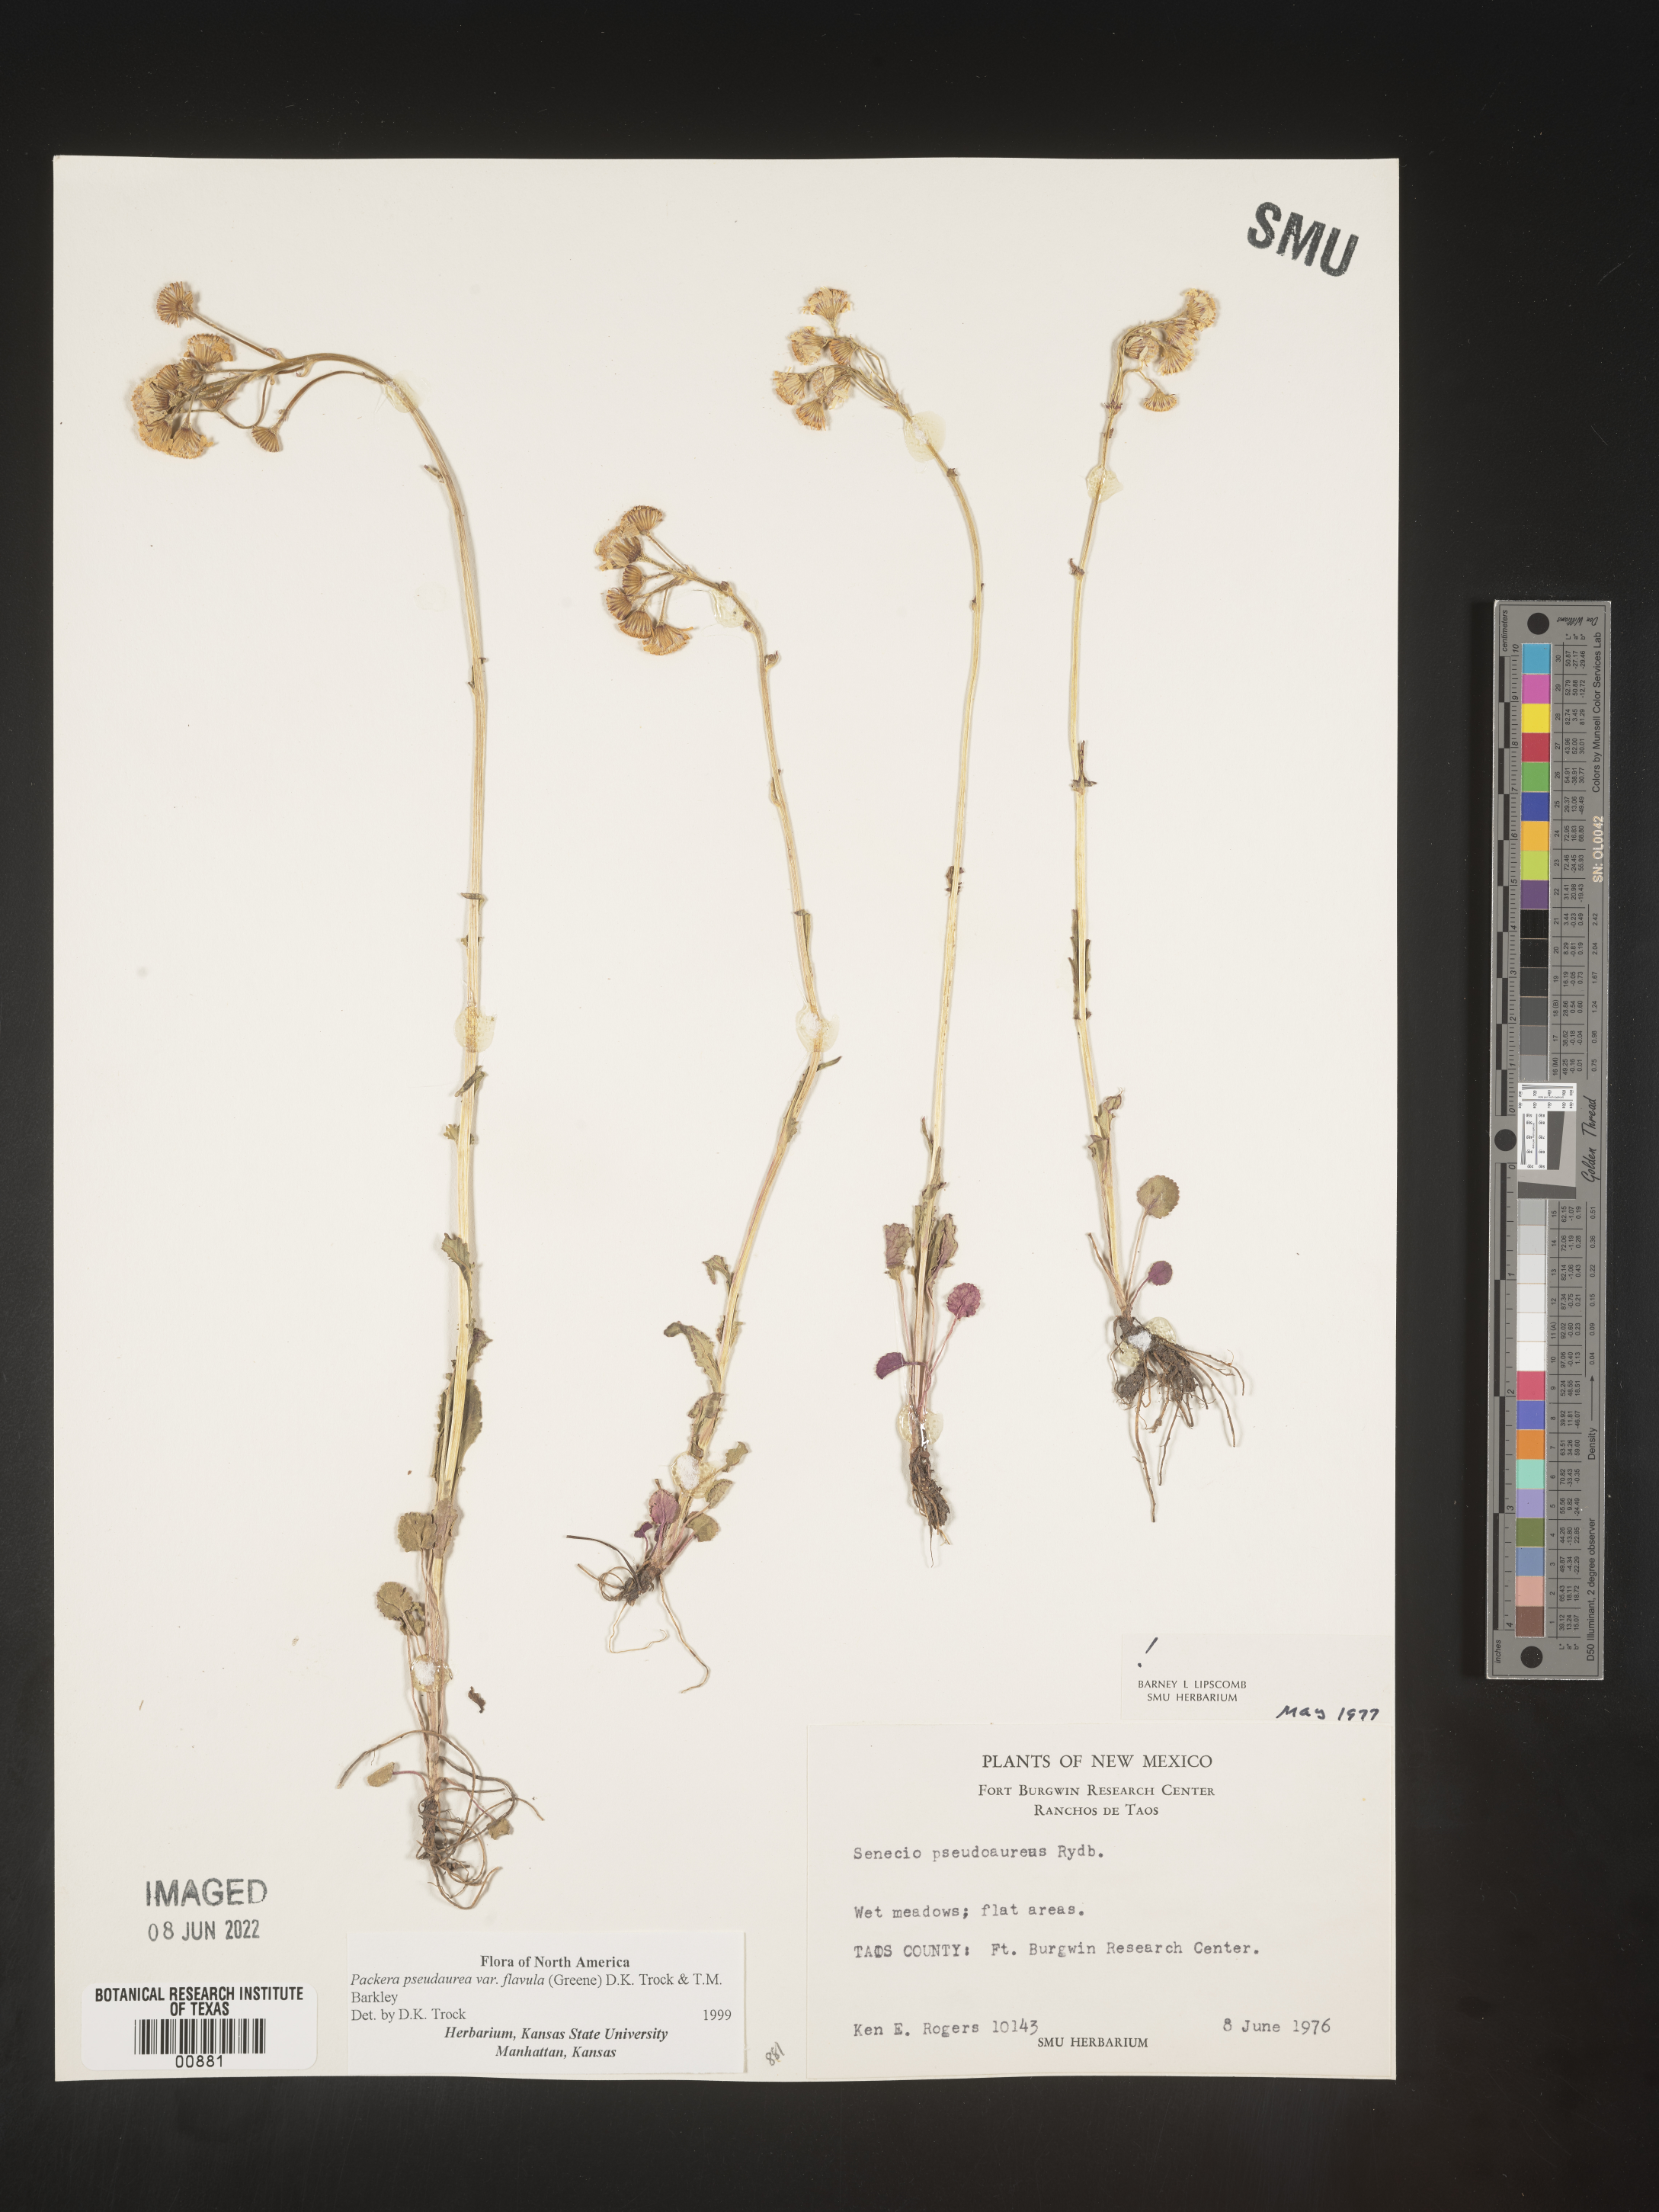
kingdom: Plantae
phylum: Tracheophyta
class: Magnoliopsida
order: Asterales
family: Asteraceae
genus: Packera
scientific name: Packera pseudaurea
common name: False-gold groundsel
